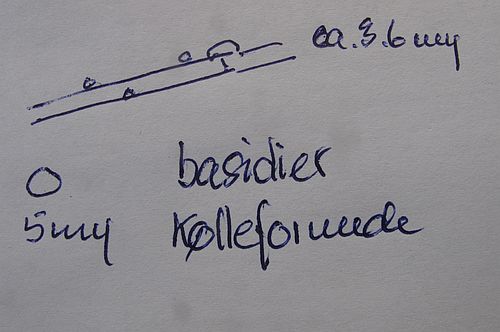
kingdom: Fungi
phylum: Basidiomycota
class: Agaricomycetes
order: Corticiales
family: Corticiaceae
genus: Lyomyces
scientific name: Lyomyces sambuci
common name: almindelig hyldehinde
